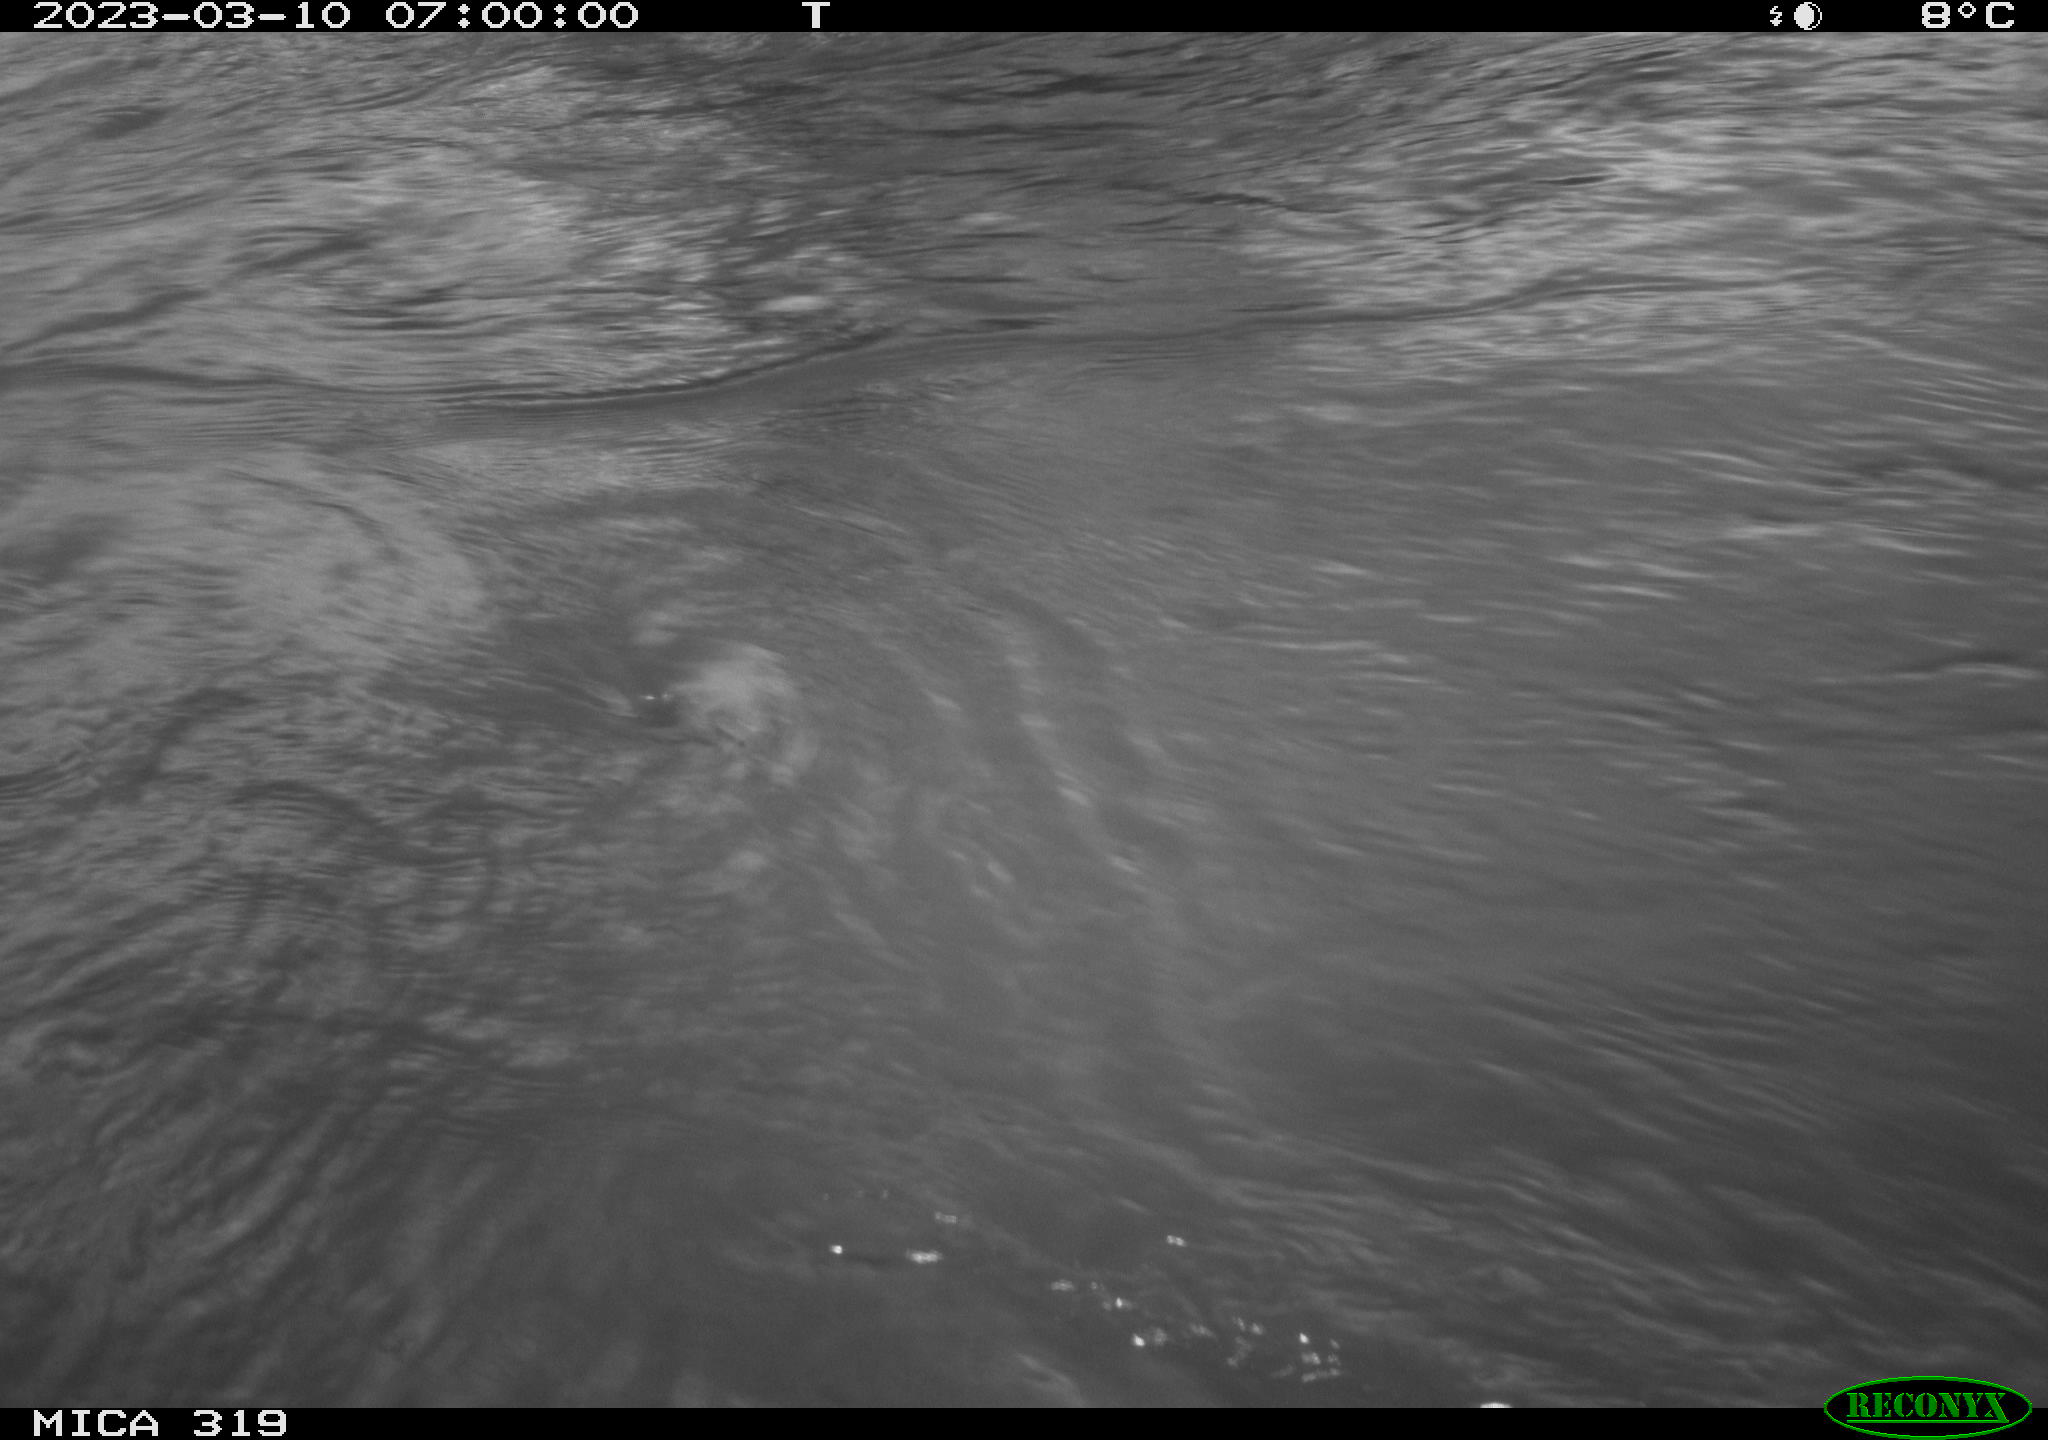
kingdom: Animalia
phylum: Chordata
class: Mammalia
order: Artiodactyla
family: Suidae
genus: Sus
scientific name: Sus scrofa
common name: Wild boar
